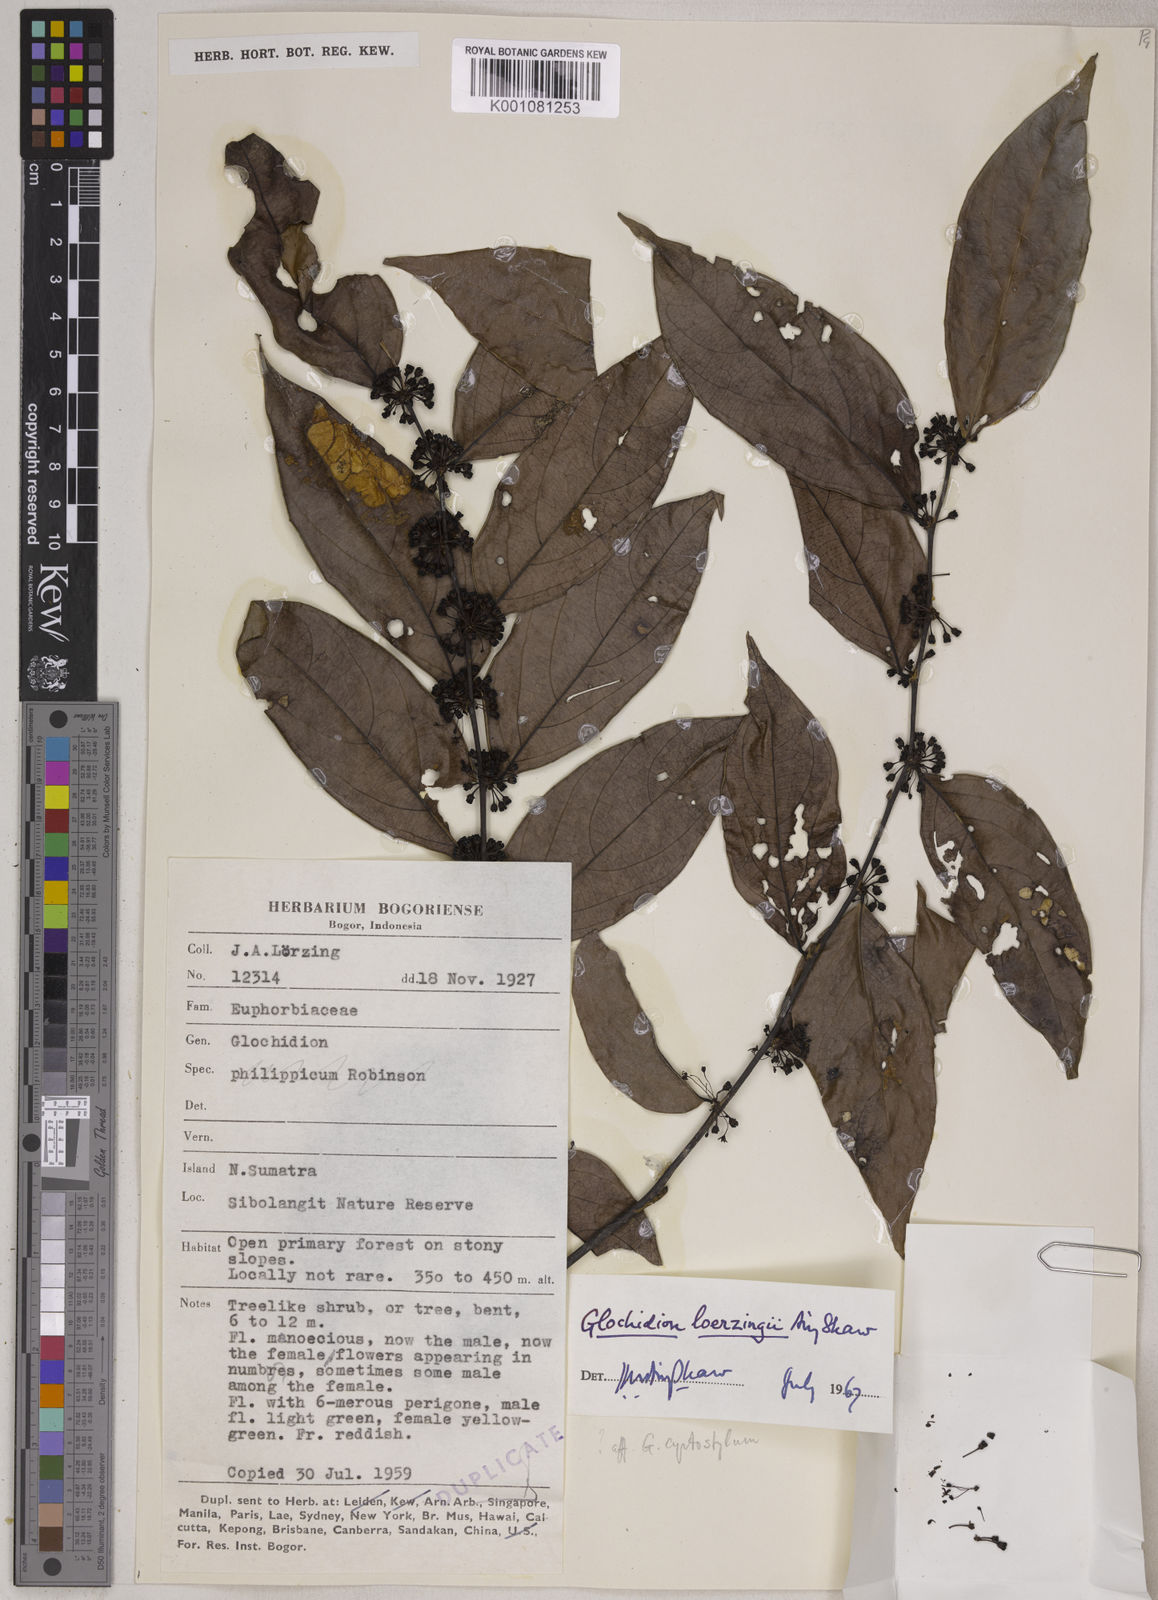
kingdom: Plantae
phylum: Tracheophyta
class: Magnoliopsida
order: Malpighiales
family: Phyllanthaceae
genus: Glochidion
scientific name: Glochidion loerzingii
